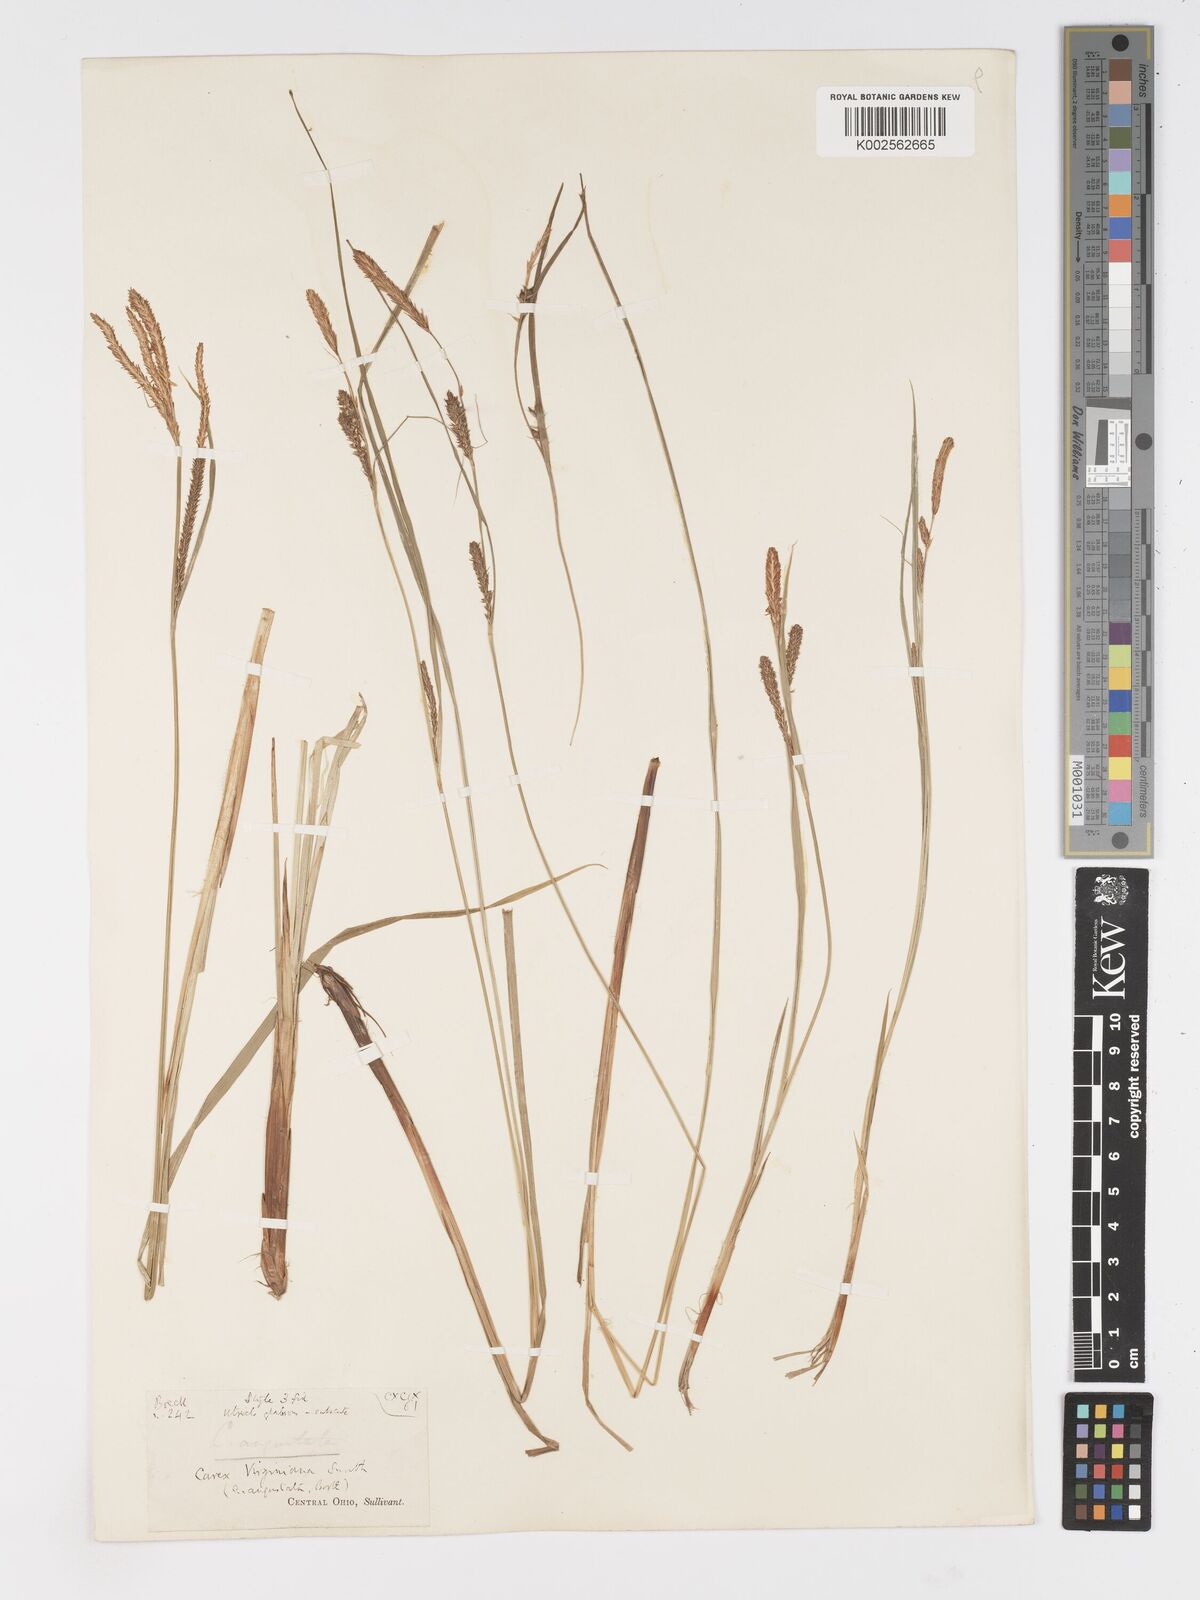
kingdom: Plantae
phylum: Tracheophyta
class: Liliopsida
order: Poales
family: Cyperaceae
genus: Carex
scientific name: Carex stricta
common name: Hummock sedge
